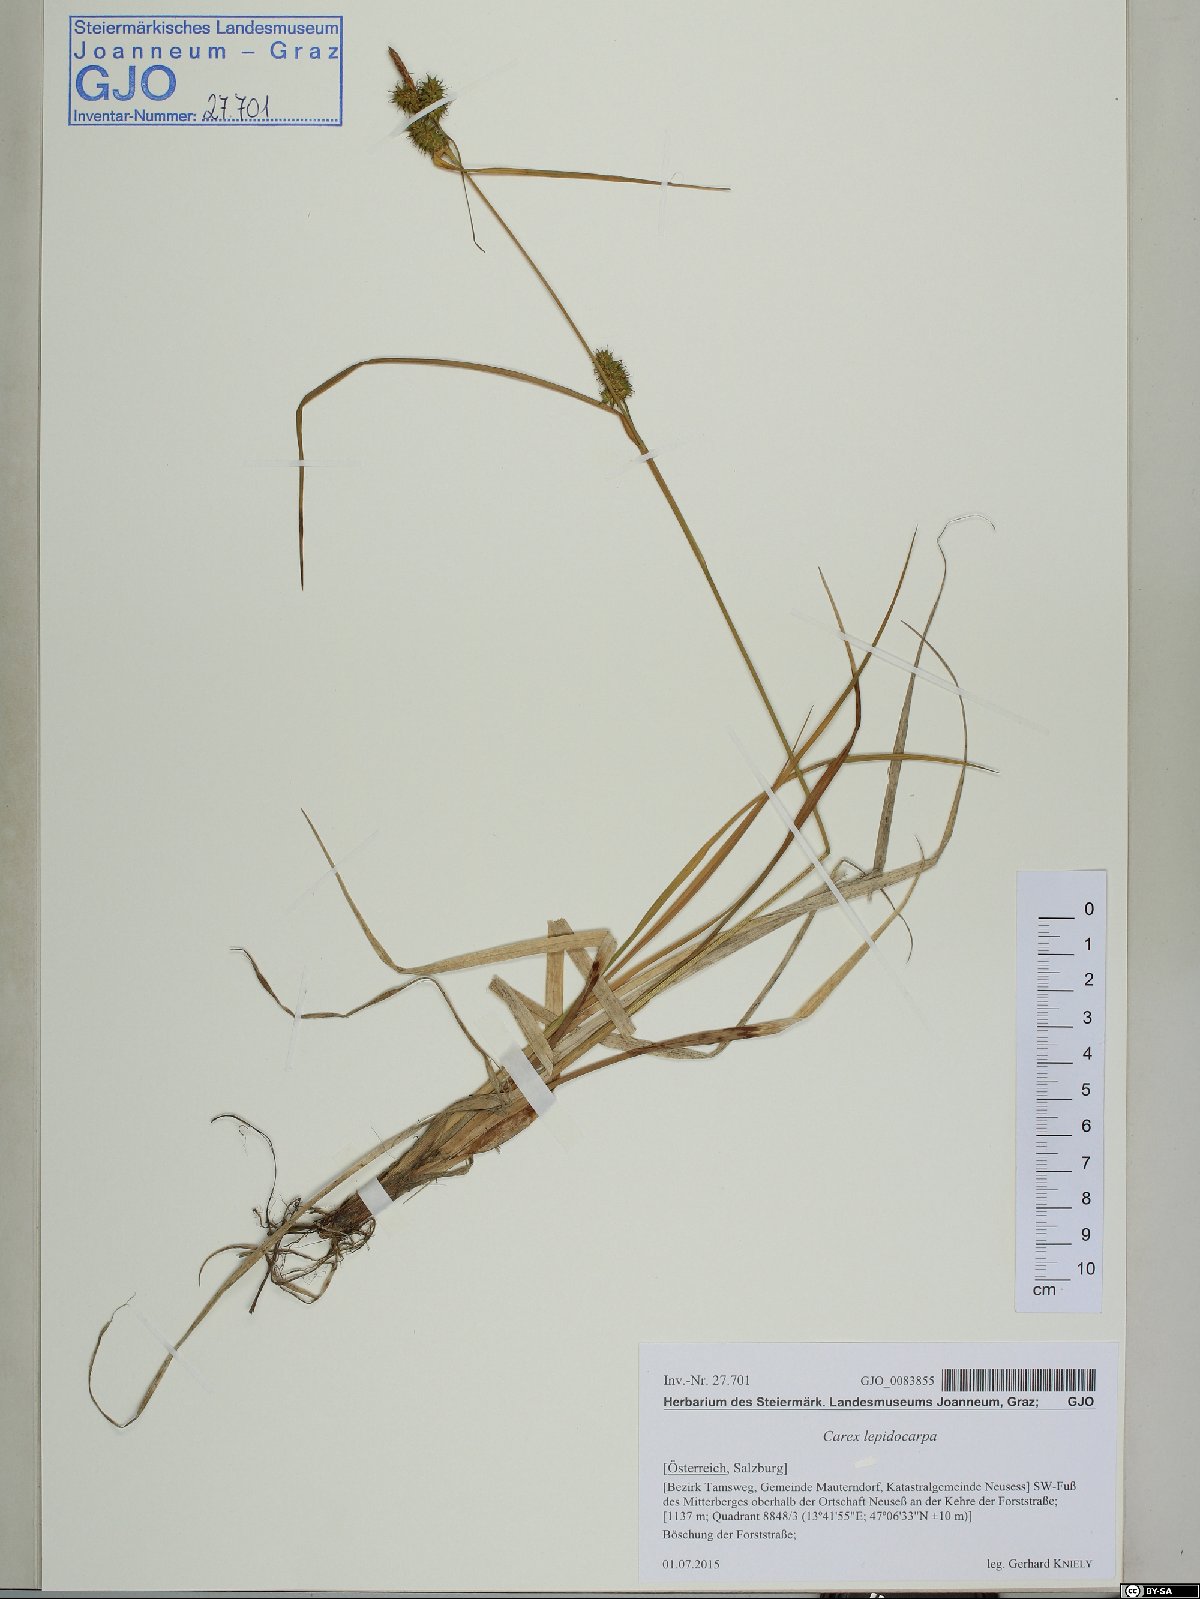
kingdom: Plantae
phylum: Tracheophyta
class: Liliopsida
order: Poales
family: Cyperaceae
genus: Carex
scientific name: Carex lepidocarpa
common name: Long-stalked yellow-sedge
